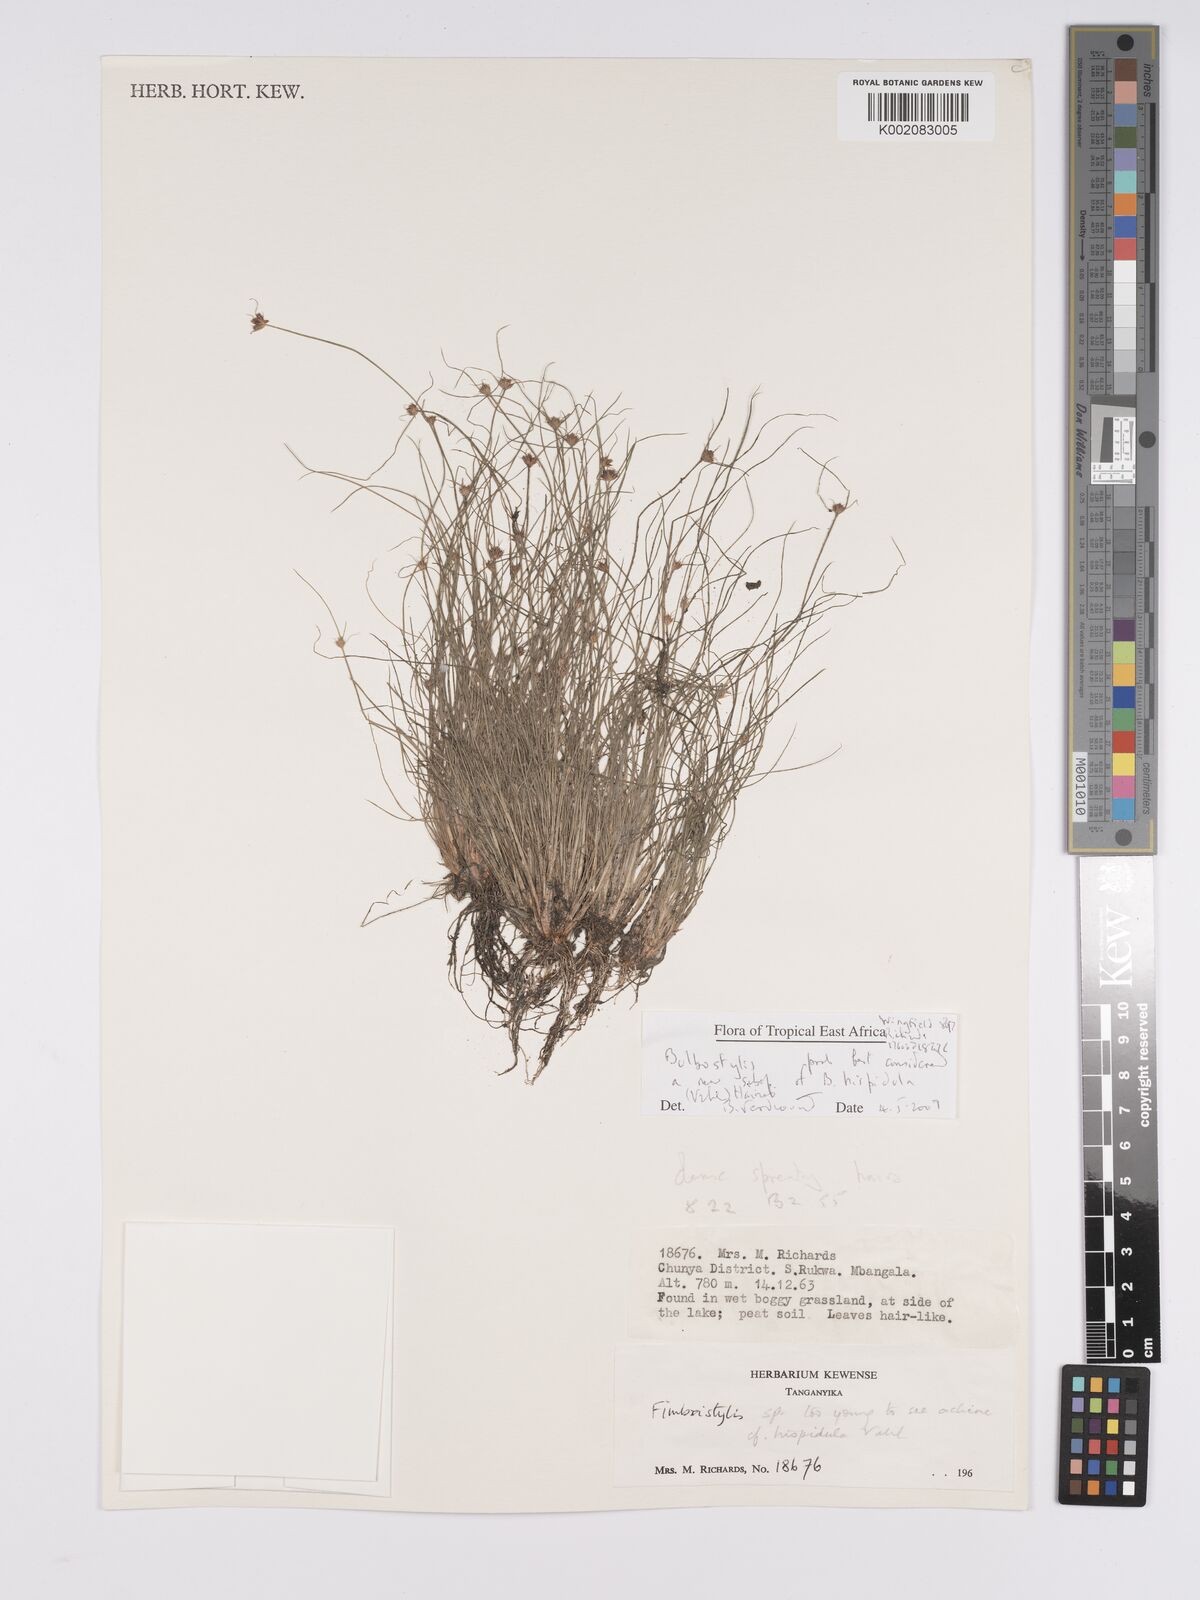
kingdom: Plantae
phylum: Tracheophyta
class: Liliopsida
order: Poales
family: Cyperaceae
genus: Bulbostylis
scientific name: Bulbostylis hispidula
